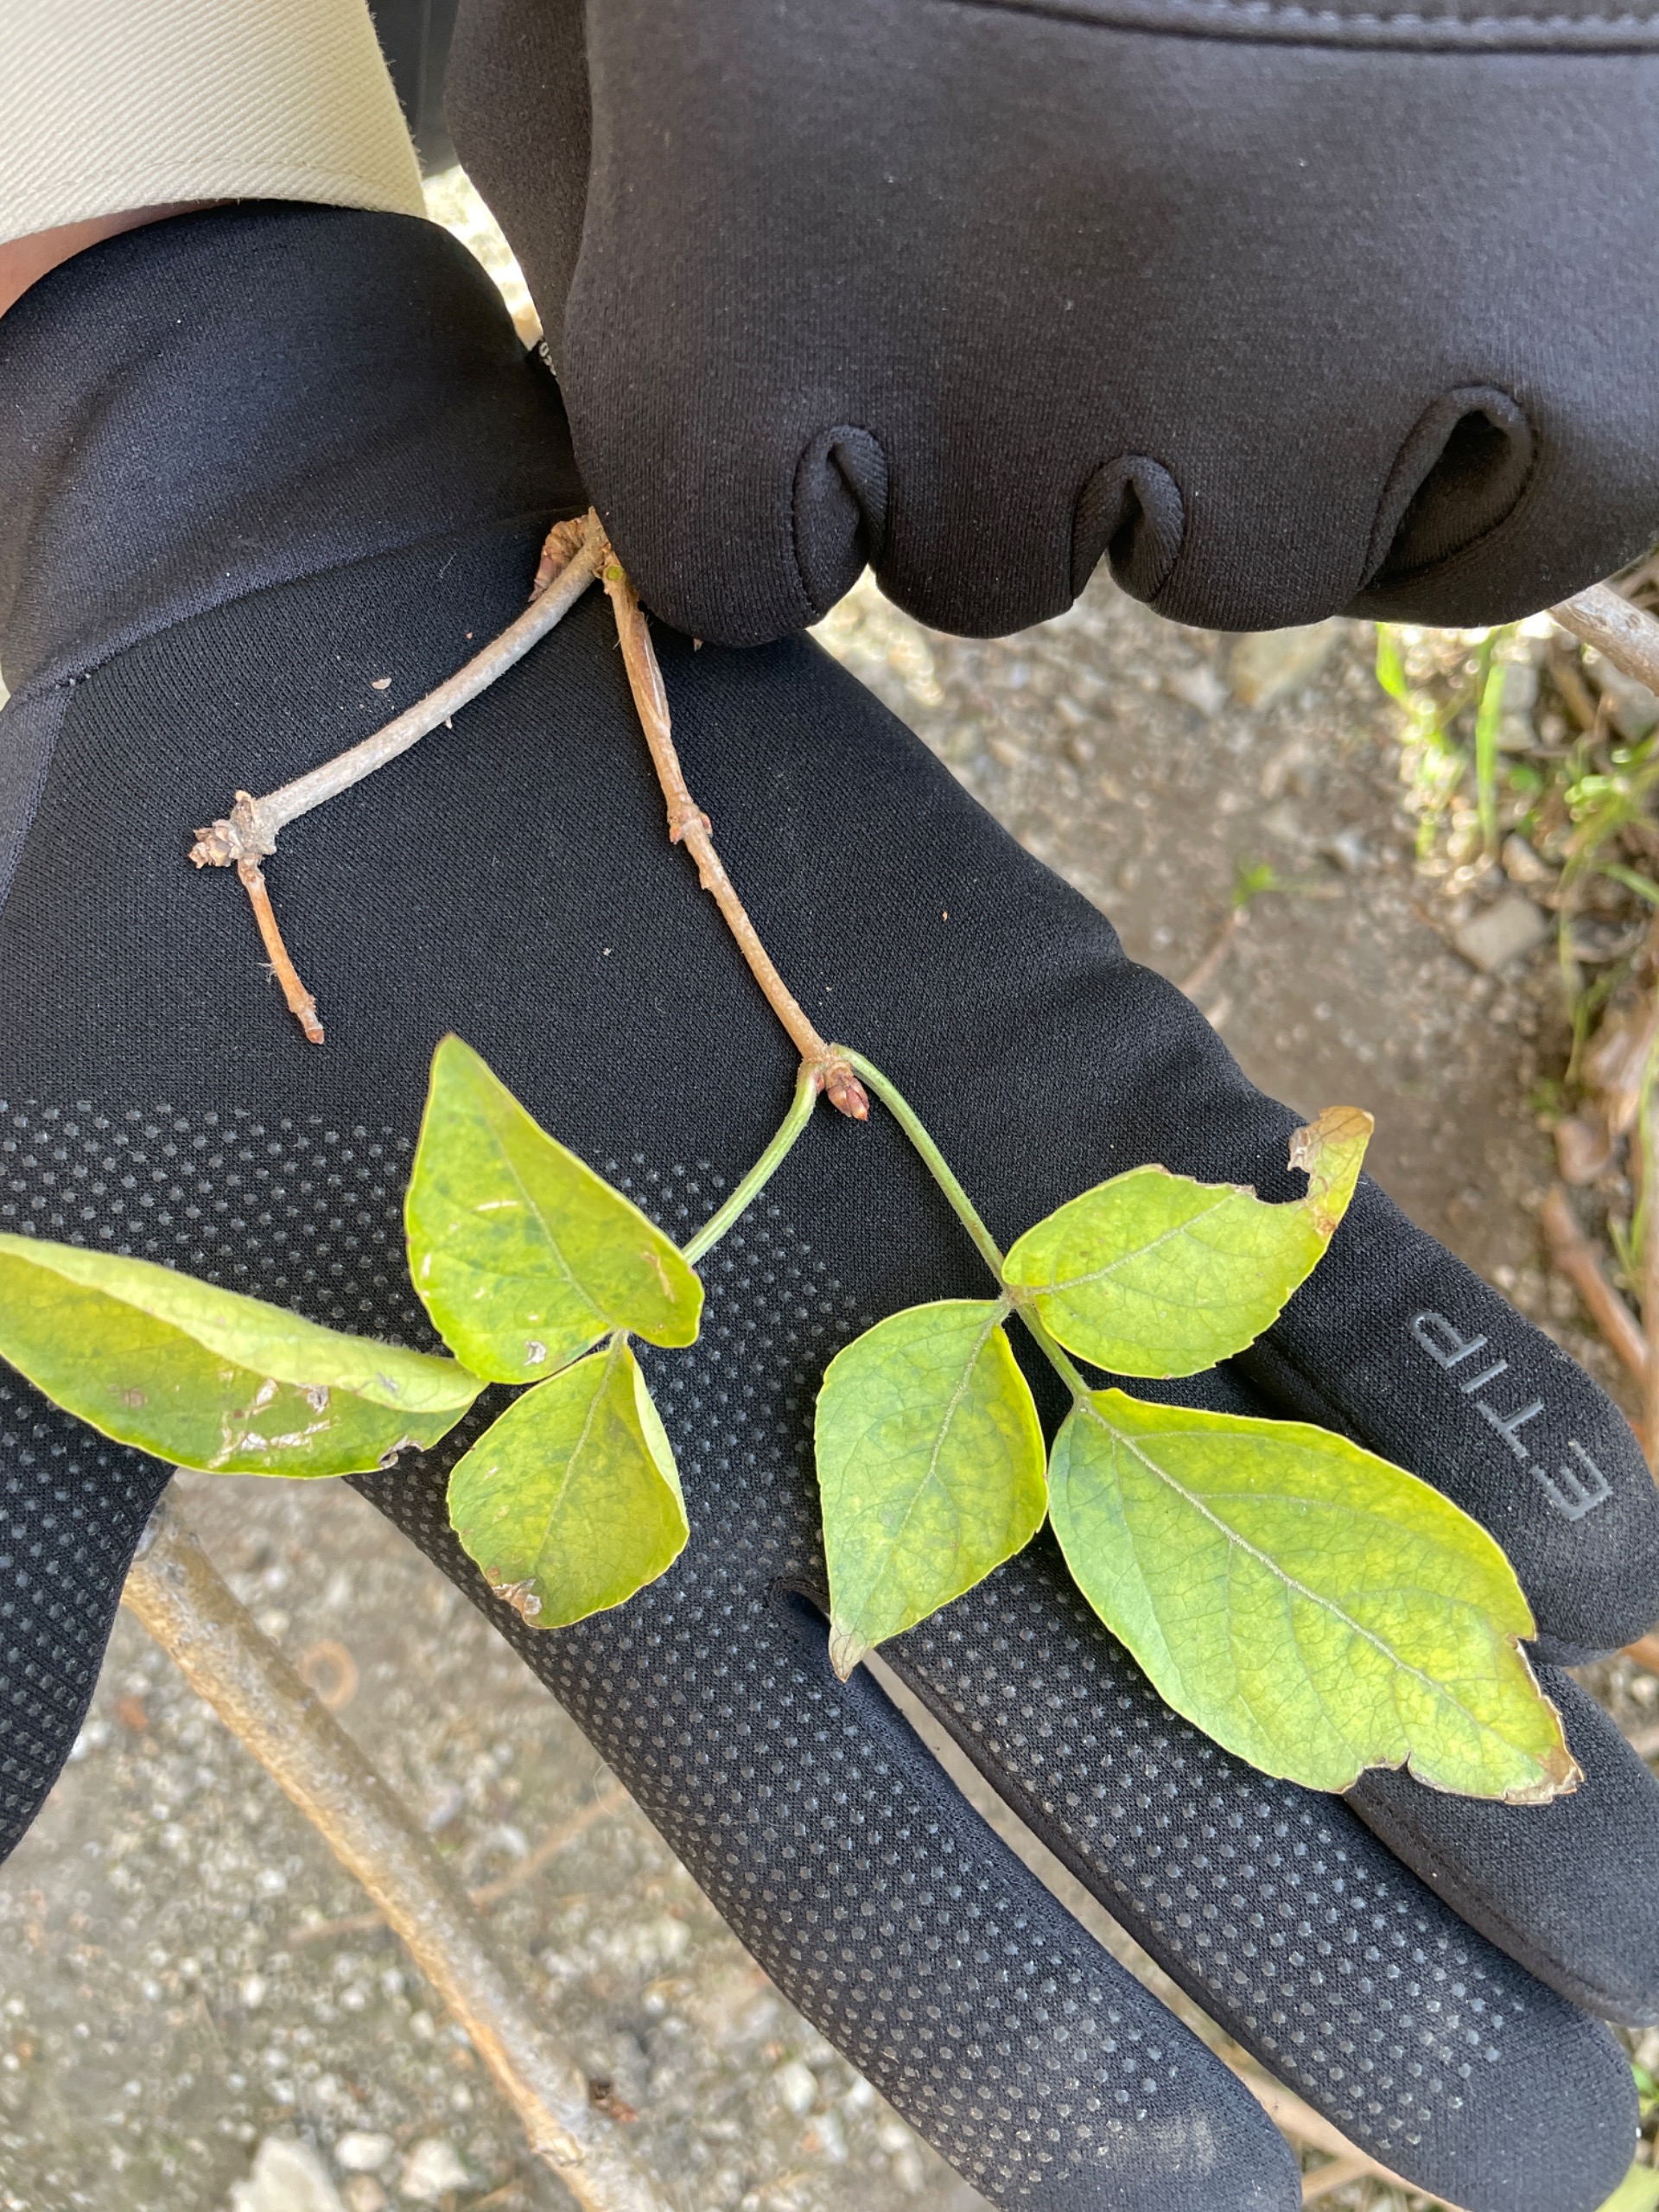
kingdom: Plantae
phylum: Tracheophyta
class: Magnoliopsida
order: Dipsacales
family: Viburnaceae
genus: Sambucus
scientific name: Sambucus nigra
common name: Almindelig hyld
